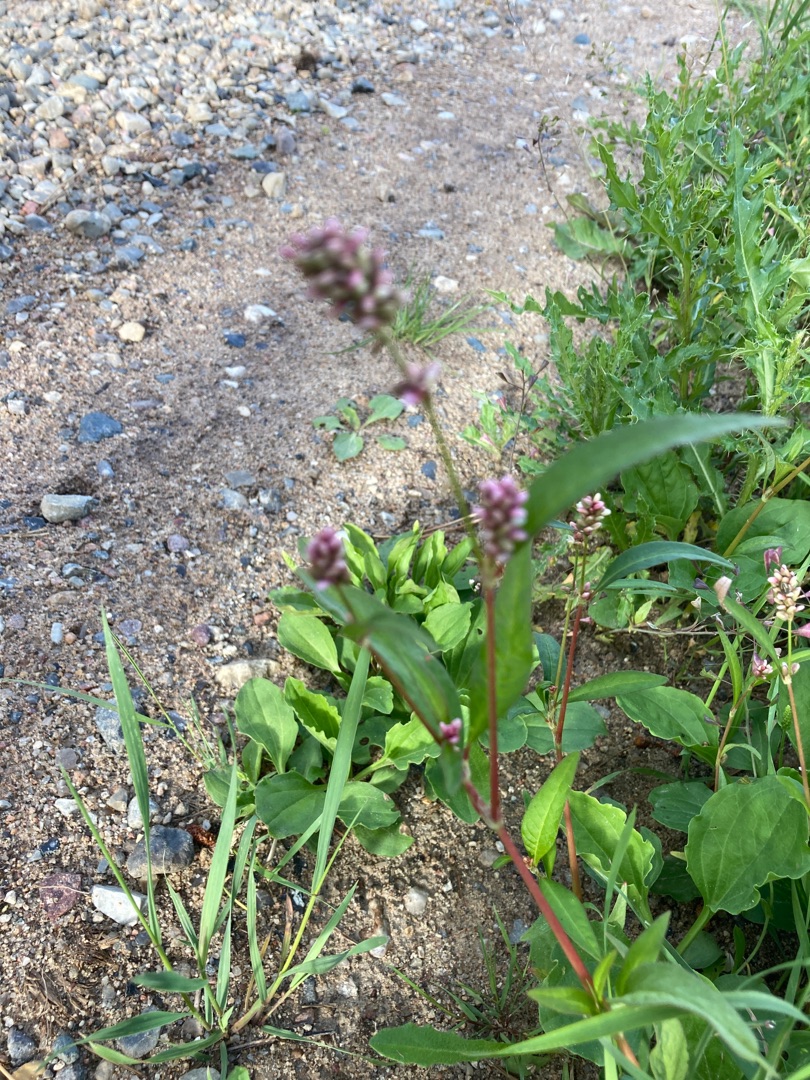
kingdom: Plantae
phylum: Tracheophyta
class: Magnoliopsida
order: Caryophyllales
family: Polygonaceae
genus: Persicaria
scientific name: Persicaria maculosa
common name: Fersken-pileurt
